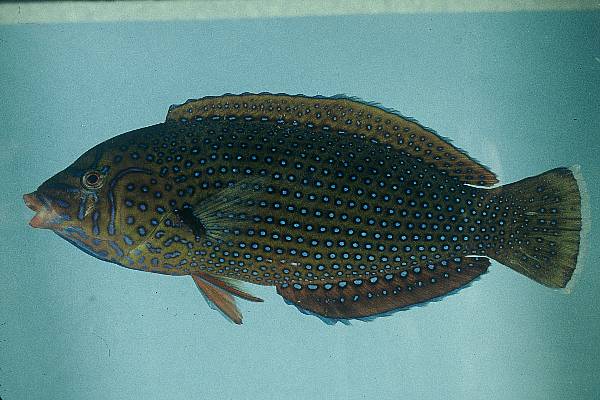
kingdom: Animalia
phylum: Chordata
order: Perciformes
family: Labridae
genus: Anampses
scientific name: Anampses caeruleopunctatus
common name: Bluespotted wrasse
